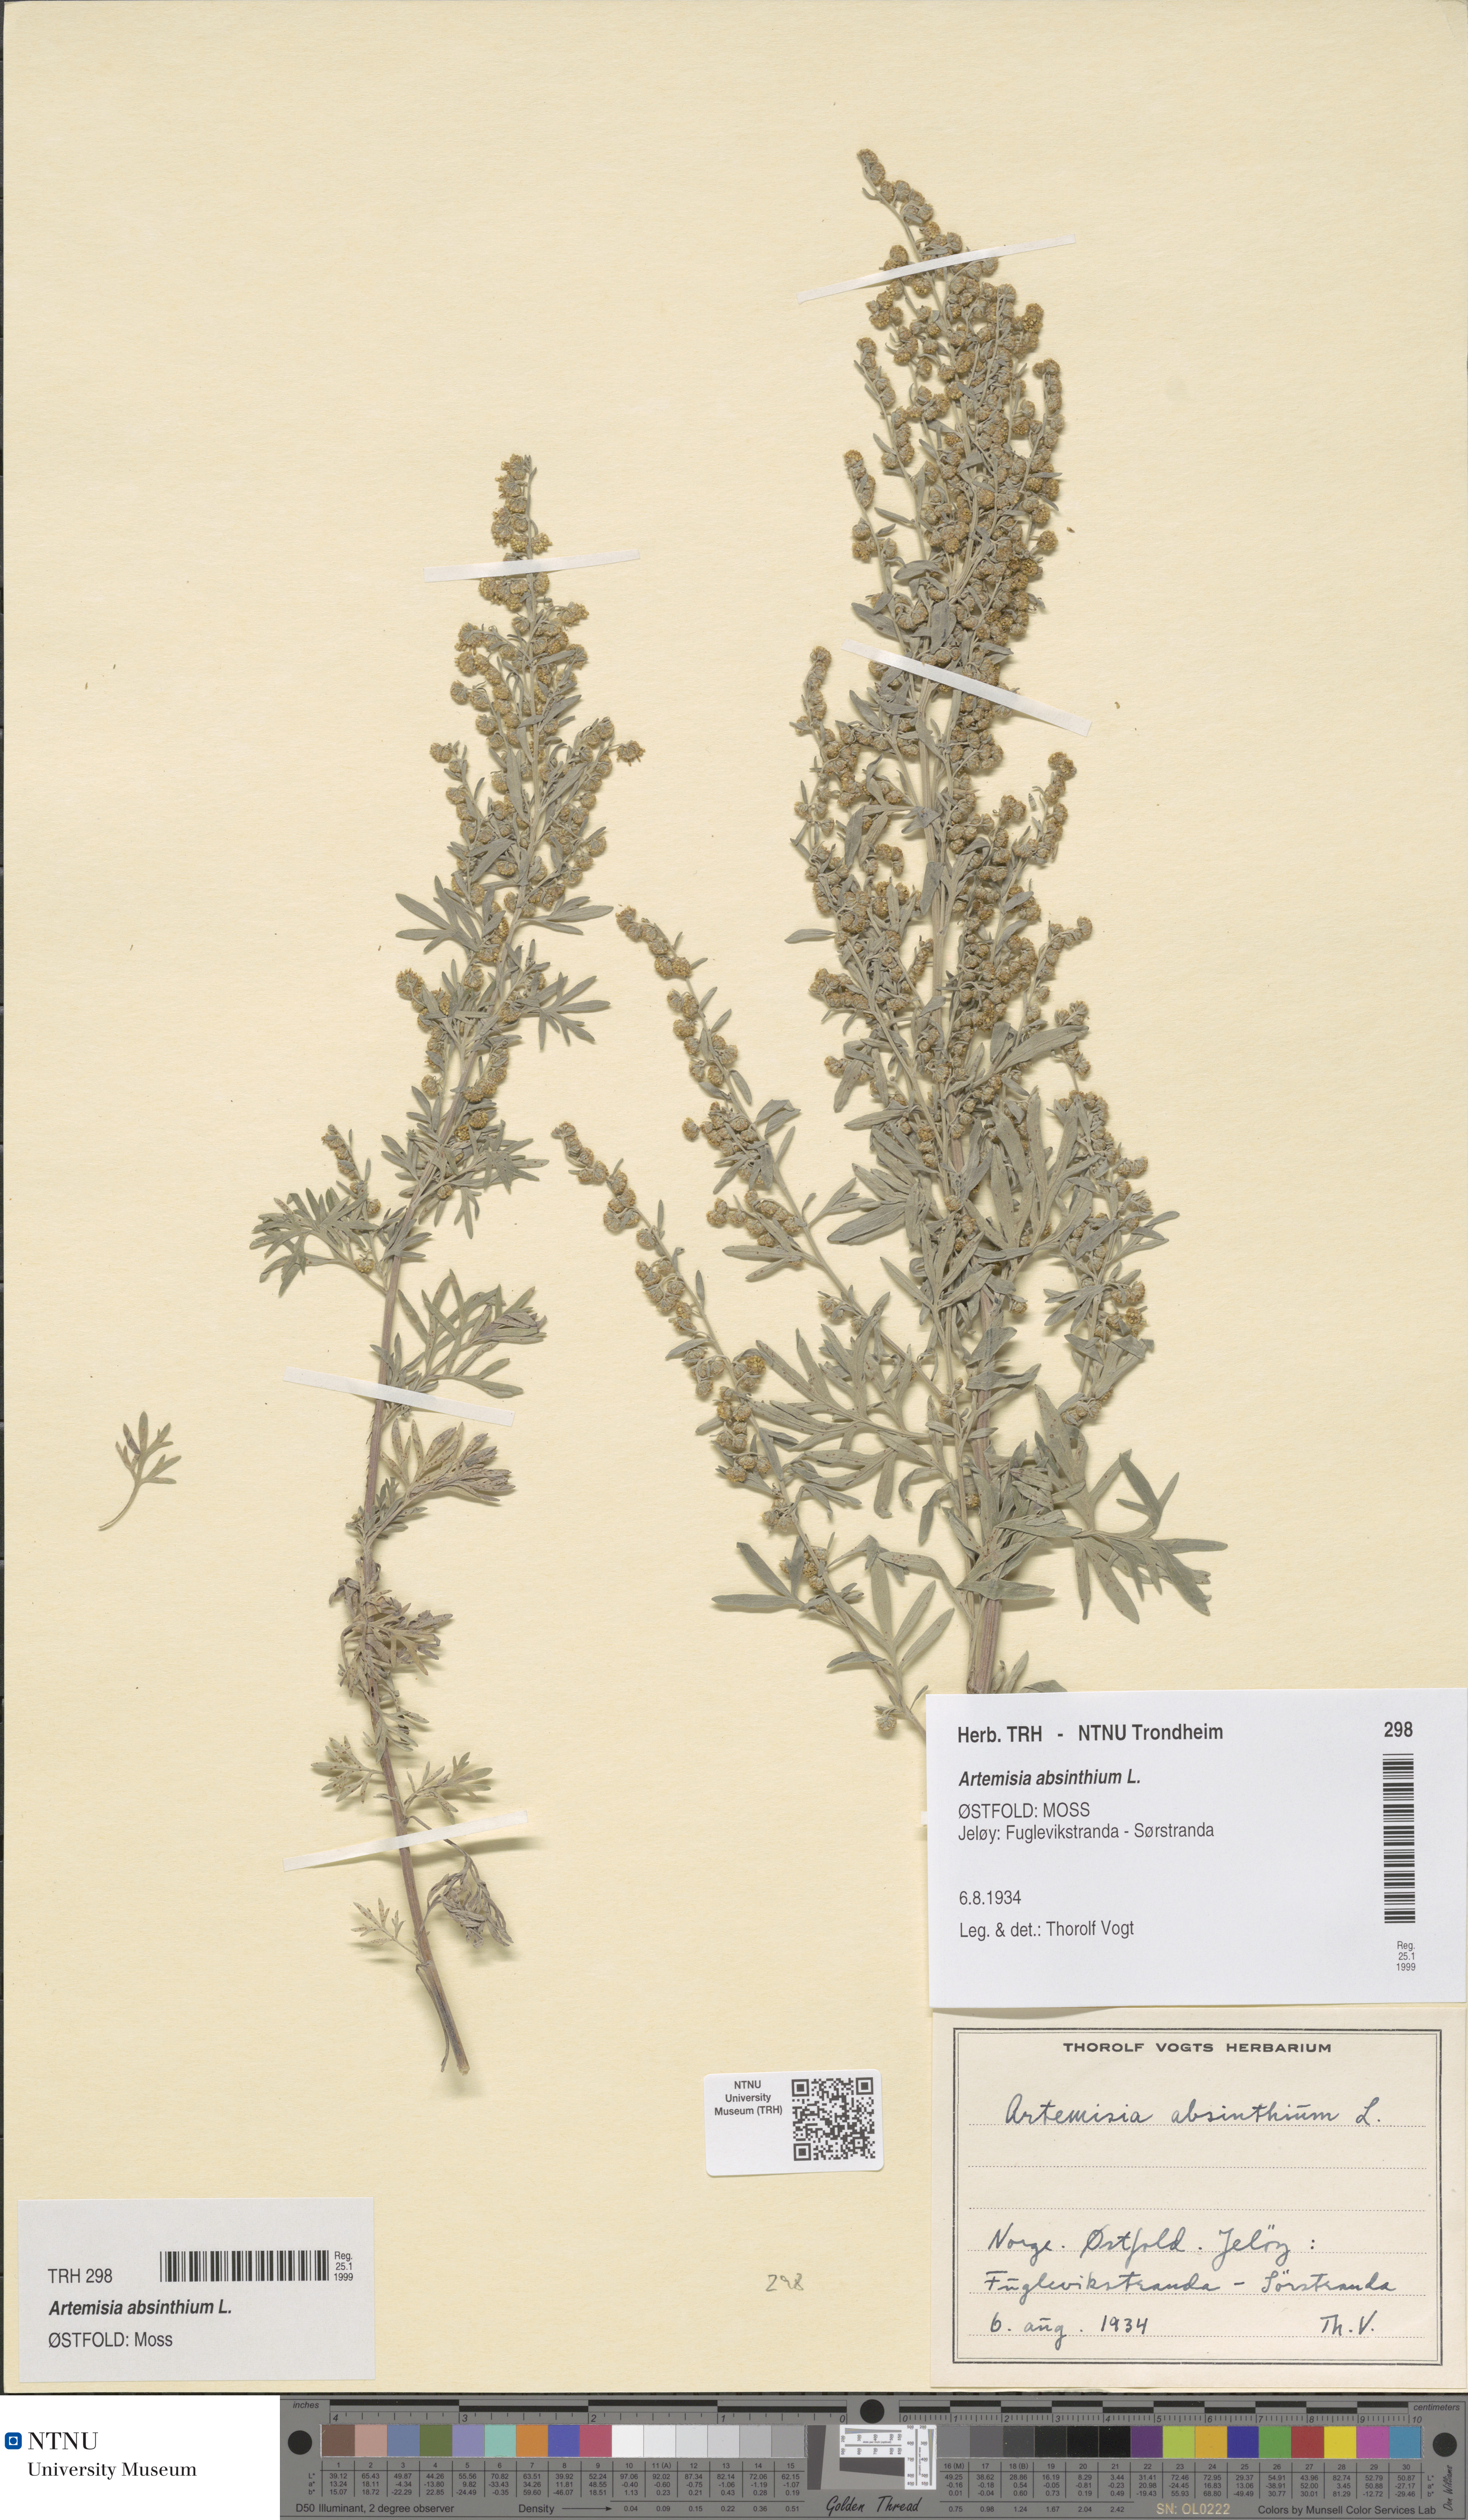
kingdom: Plantae
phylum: Tracheophyta
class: Magnoliopsida
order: Asterales
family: Asteraceae
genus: Artemisia
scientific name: Artemisia absinthium
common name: Wormwood
